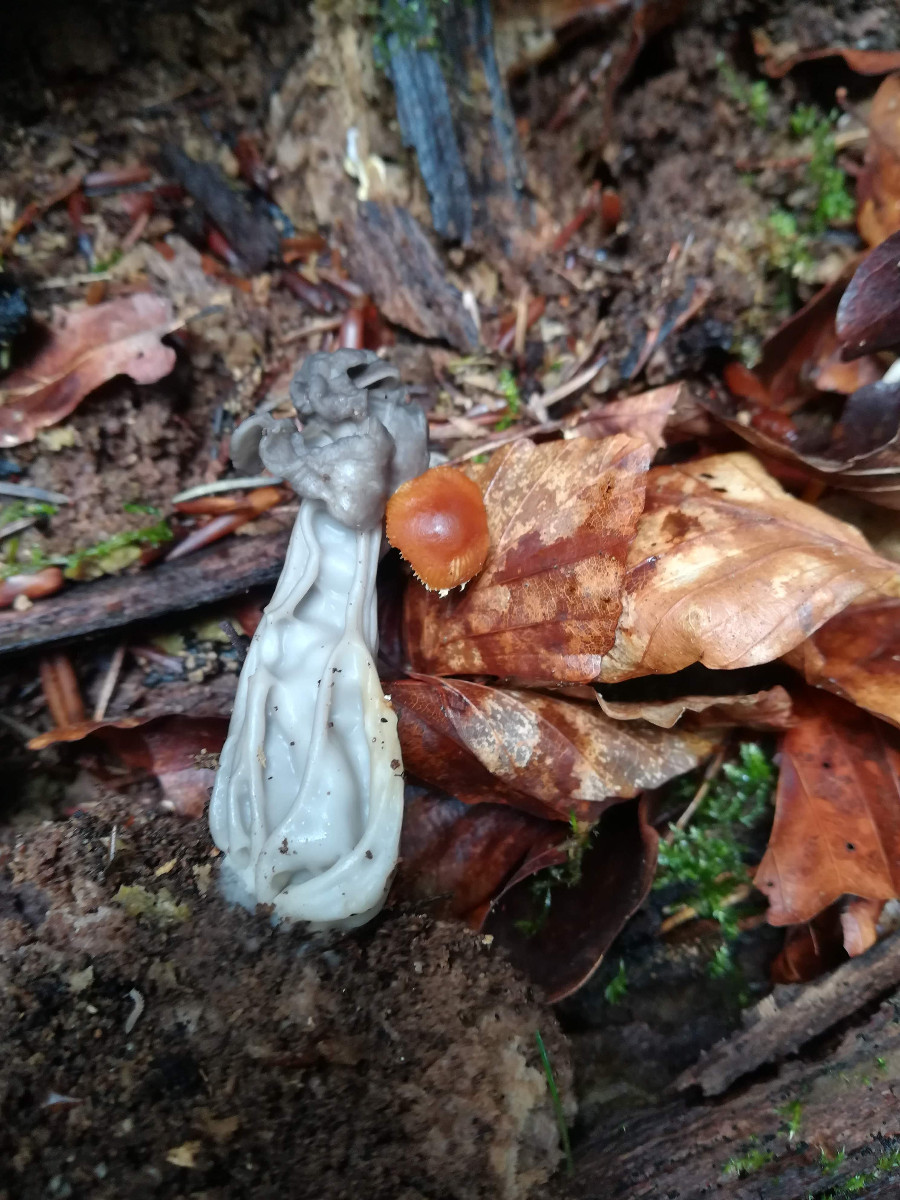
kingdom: Fungi
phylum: Ascomycota
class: Pezizomycetes
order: Pezizales
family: Helvellaceae
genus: Helvella
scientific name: Helvella lacunosa
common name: grubet foldhat
